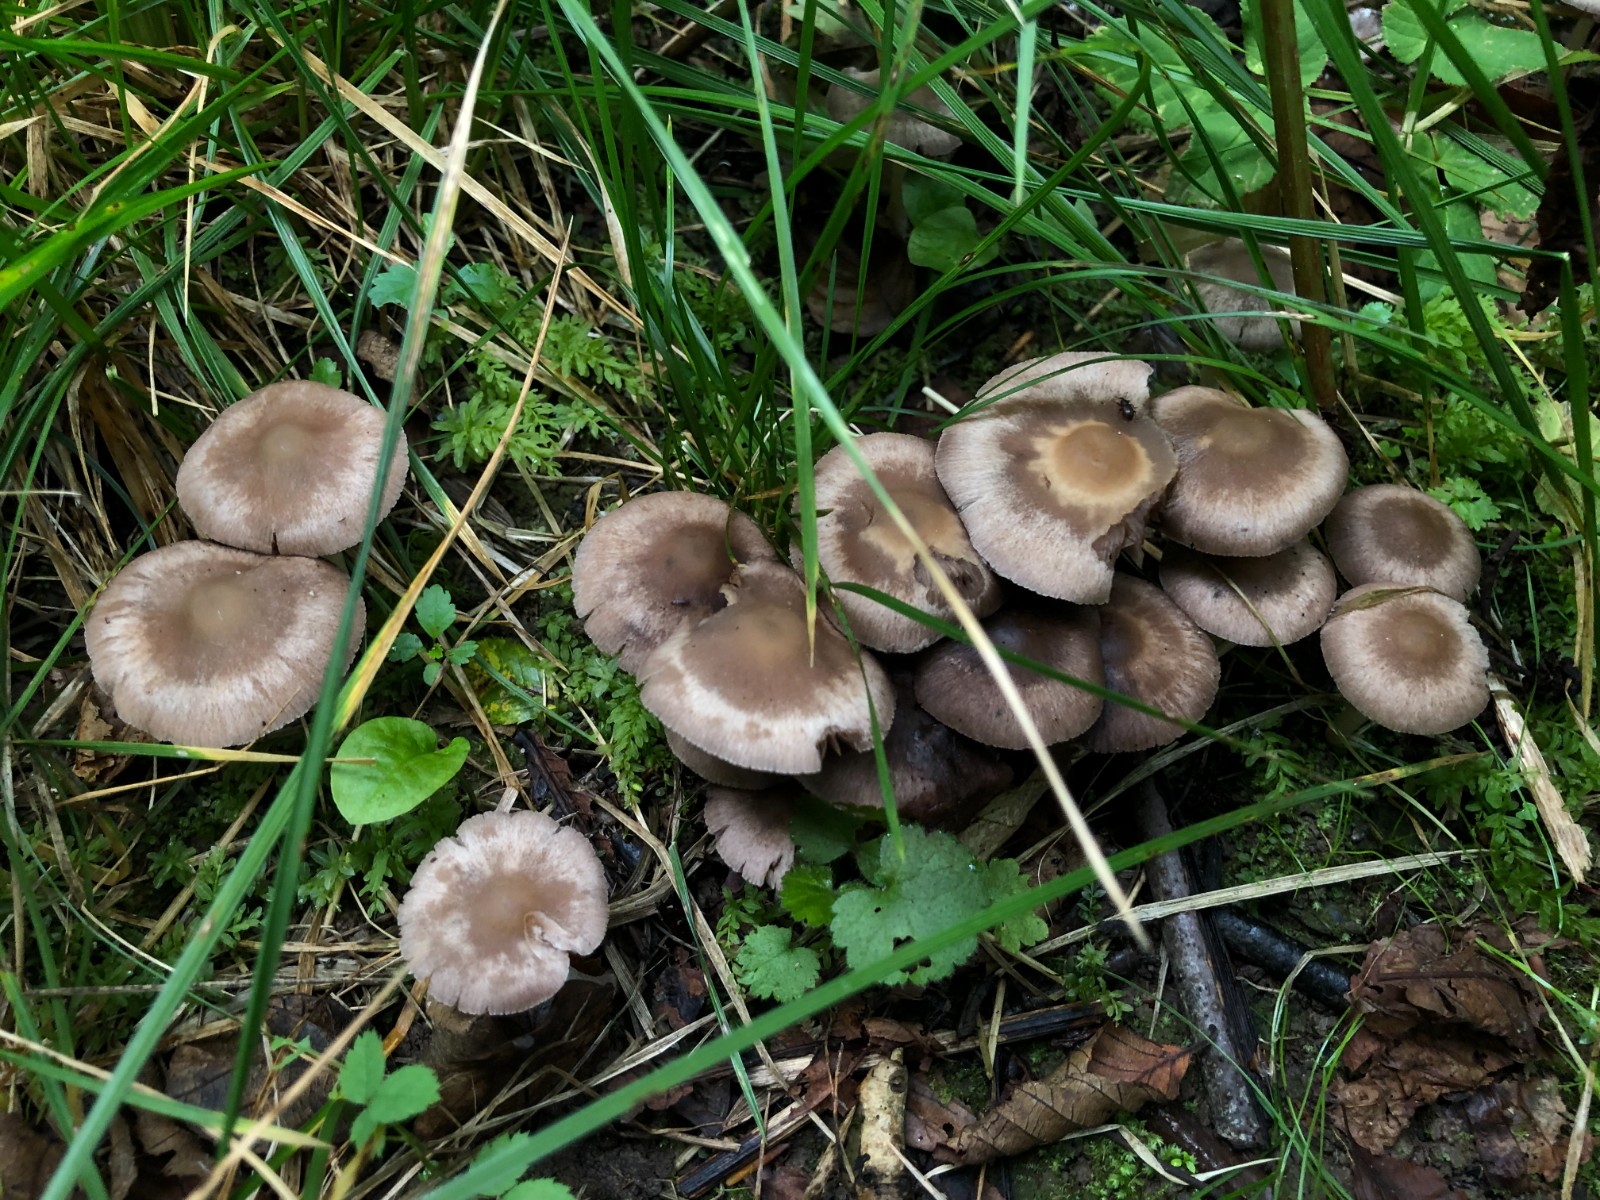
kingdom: Fungi
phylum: Basidiomycota
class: Agaricomycetes
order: Agaricales
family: Psathyrellaceae
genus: Psathyrella
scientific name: Psathyrella pseudocorrugis
